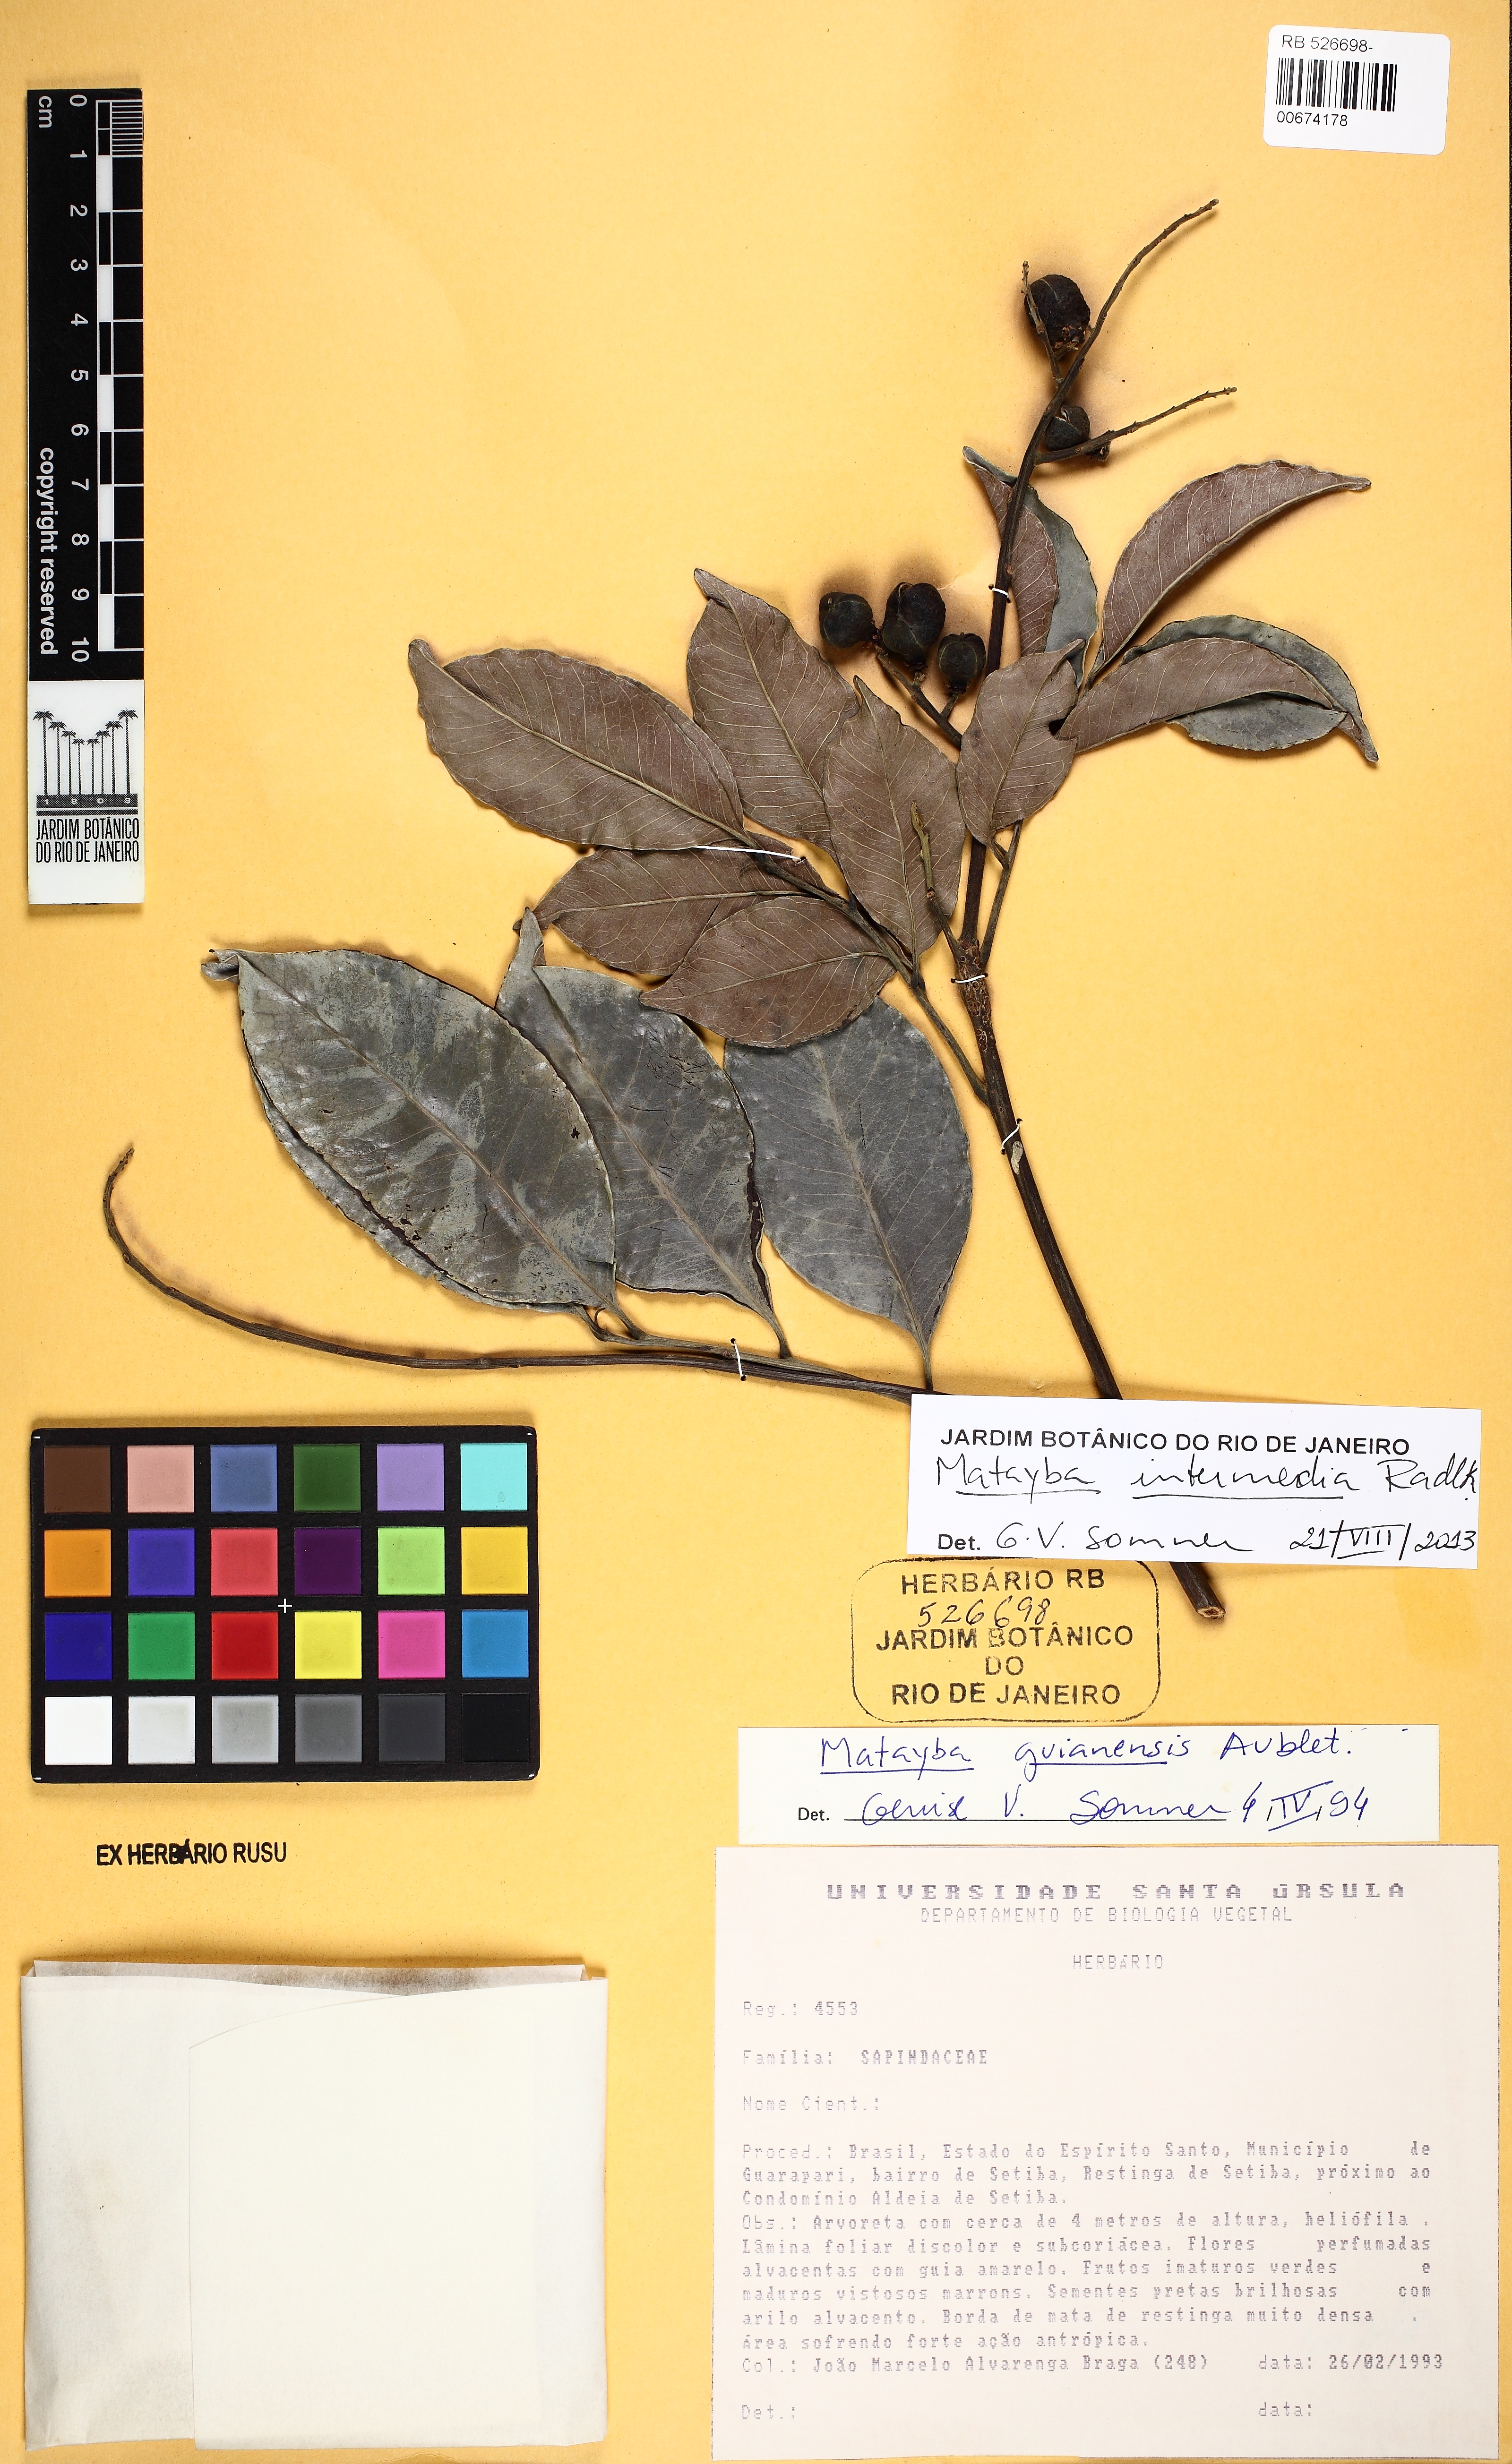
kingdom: Plantae
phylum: Tracheophyta
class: Magnoliopsida
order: Sapindales
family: Sapindaceae
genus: Matayba
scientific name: Matayba guianensis
